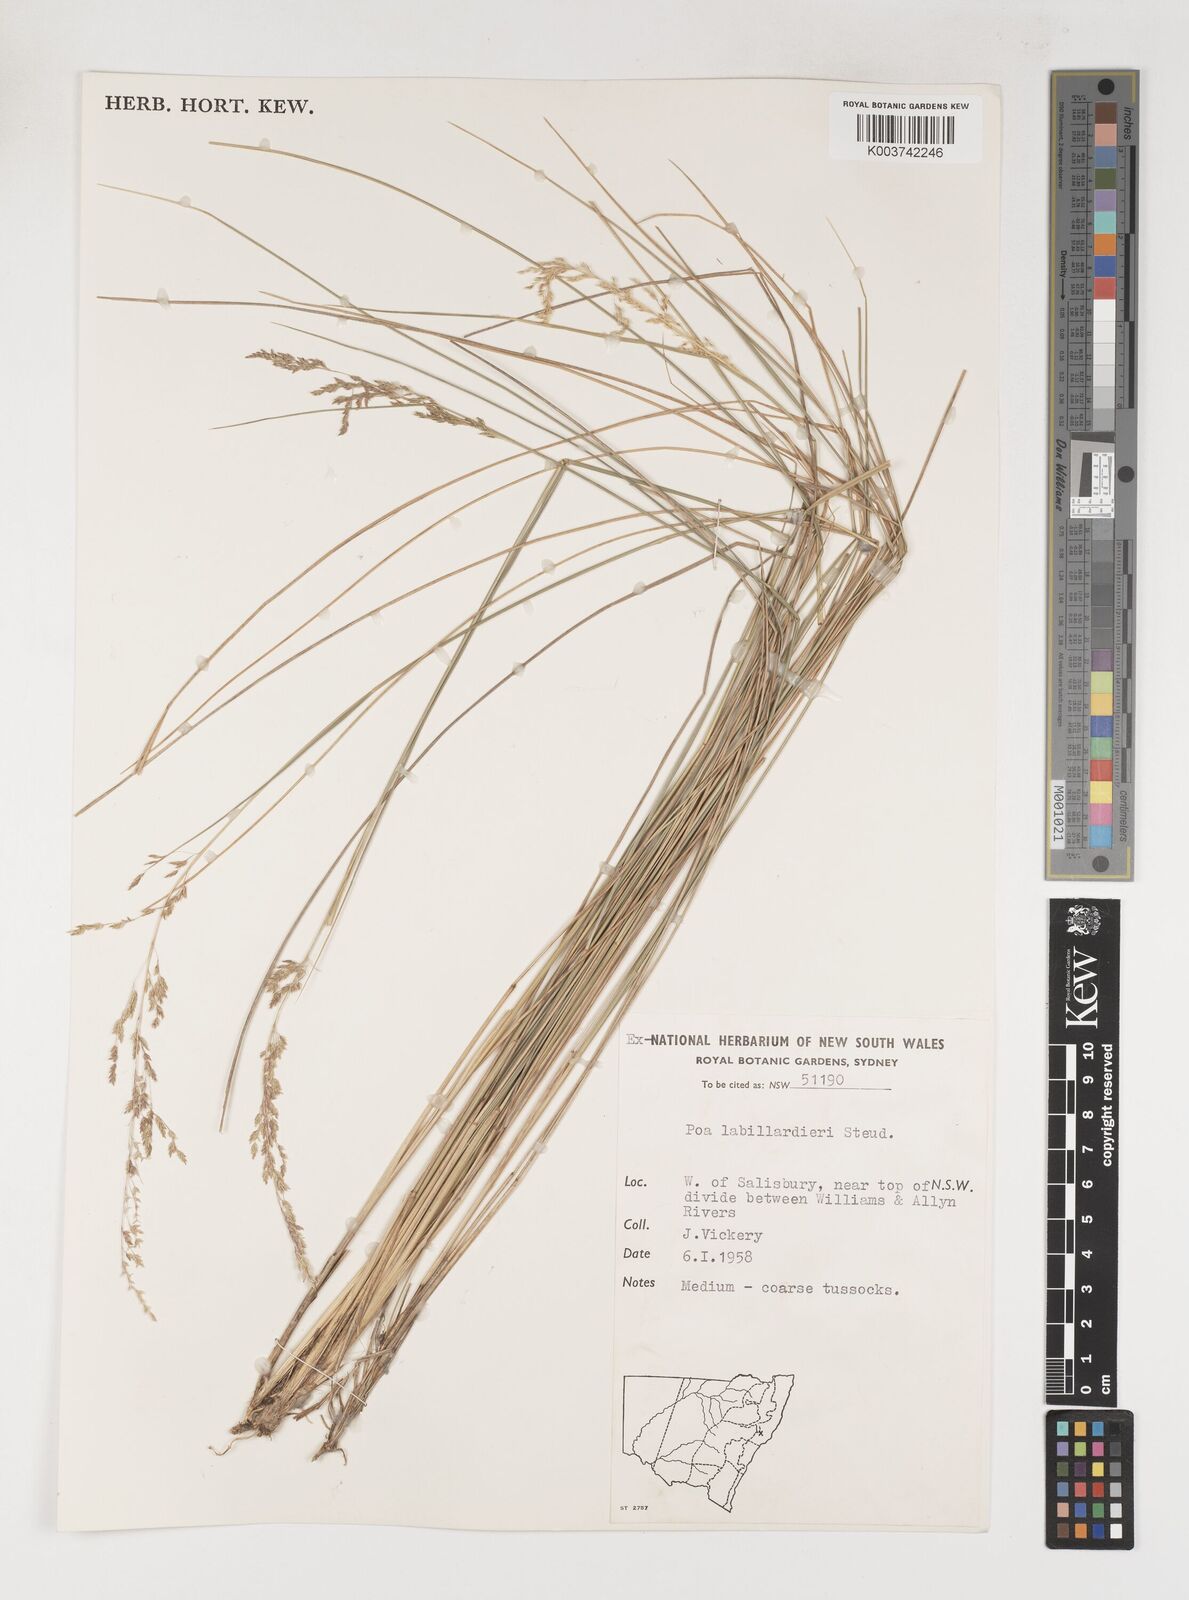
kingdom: Plantae
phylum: Tracheophyta
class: Liliopsida
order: Poales
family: Poaceae
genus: Poa
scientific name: Poa labillardierei
